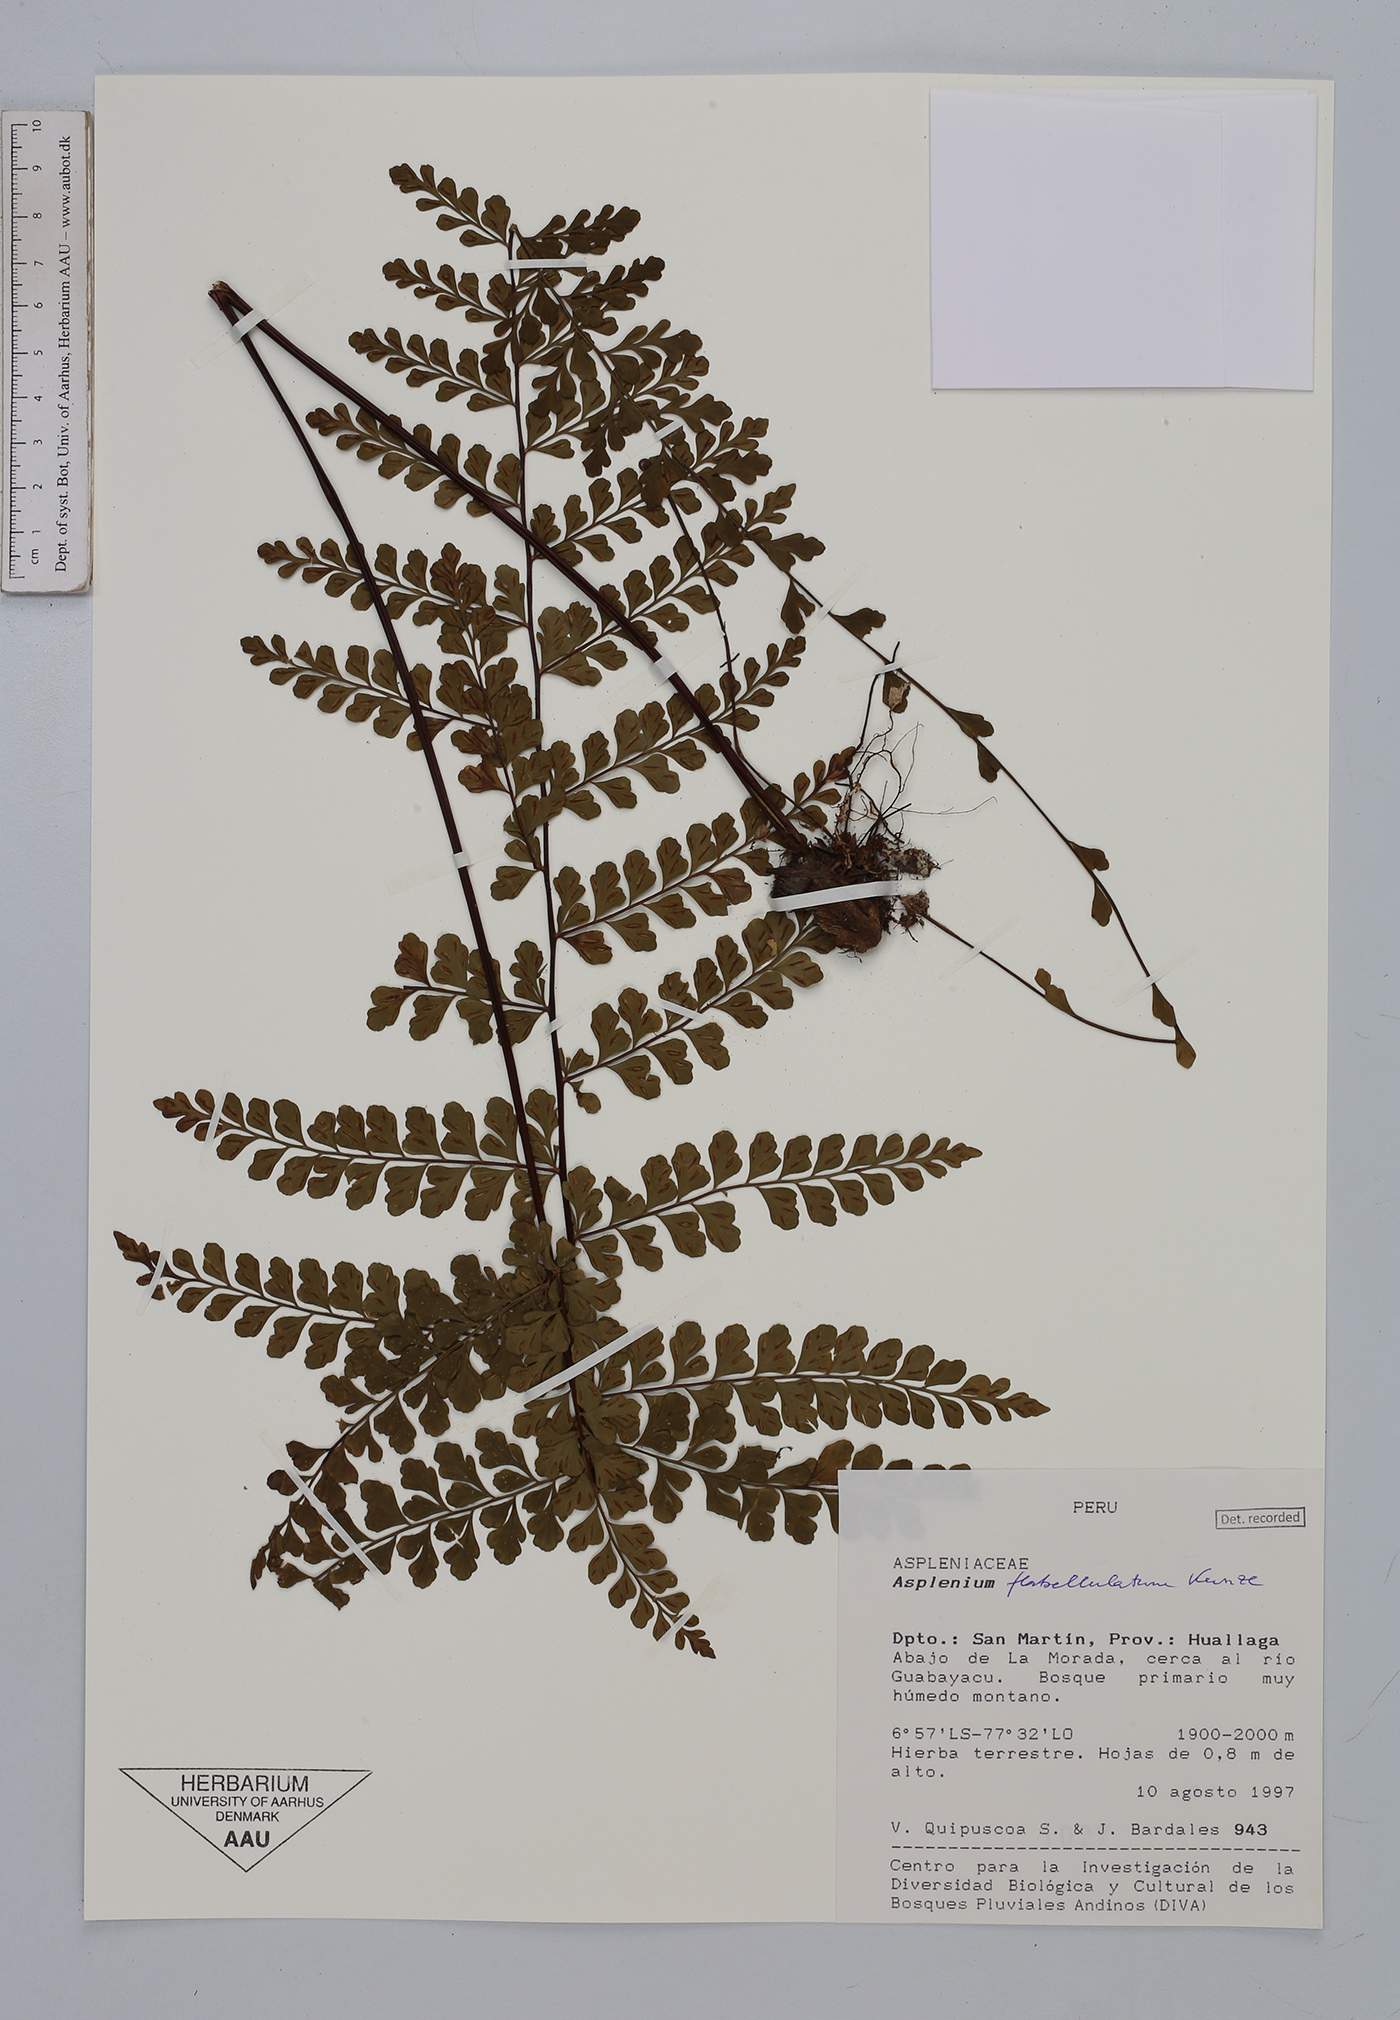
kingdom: Plantae
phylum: Tracheophyta
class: Polypodiopsida
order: Polypodiales
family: Aspleniaceae
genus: Asplenium
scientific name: Asplenium flabellulatum
